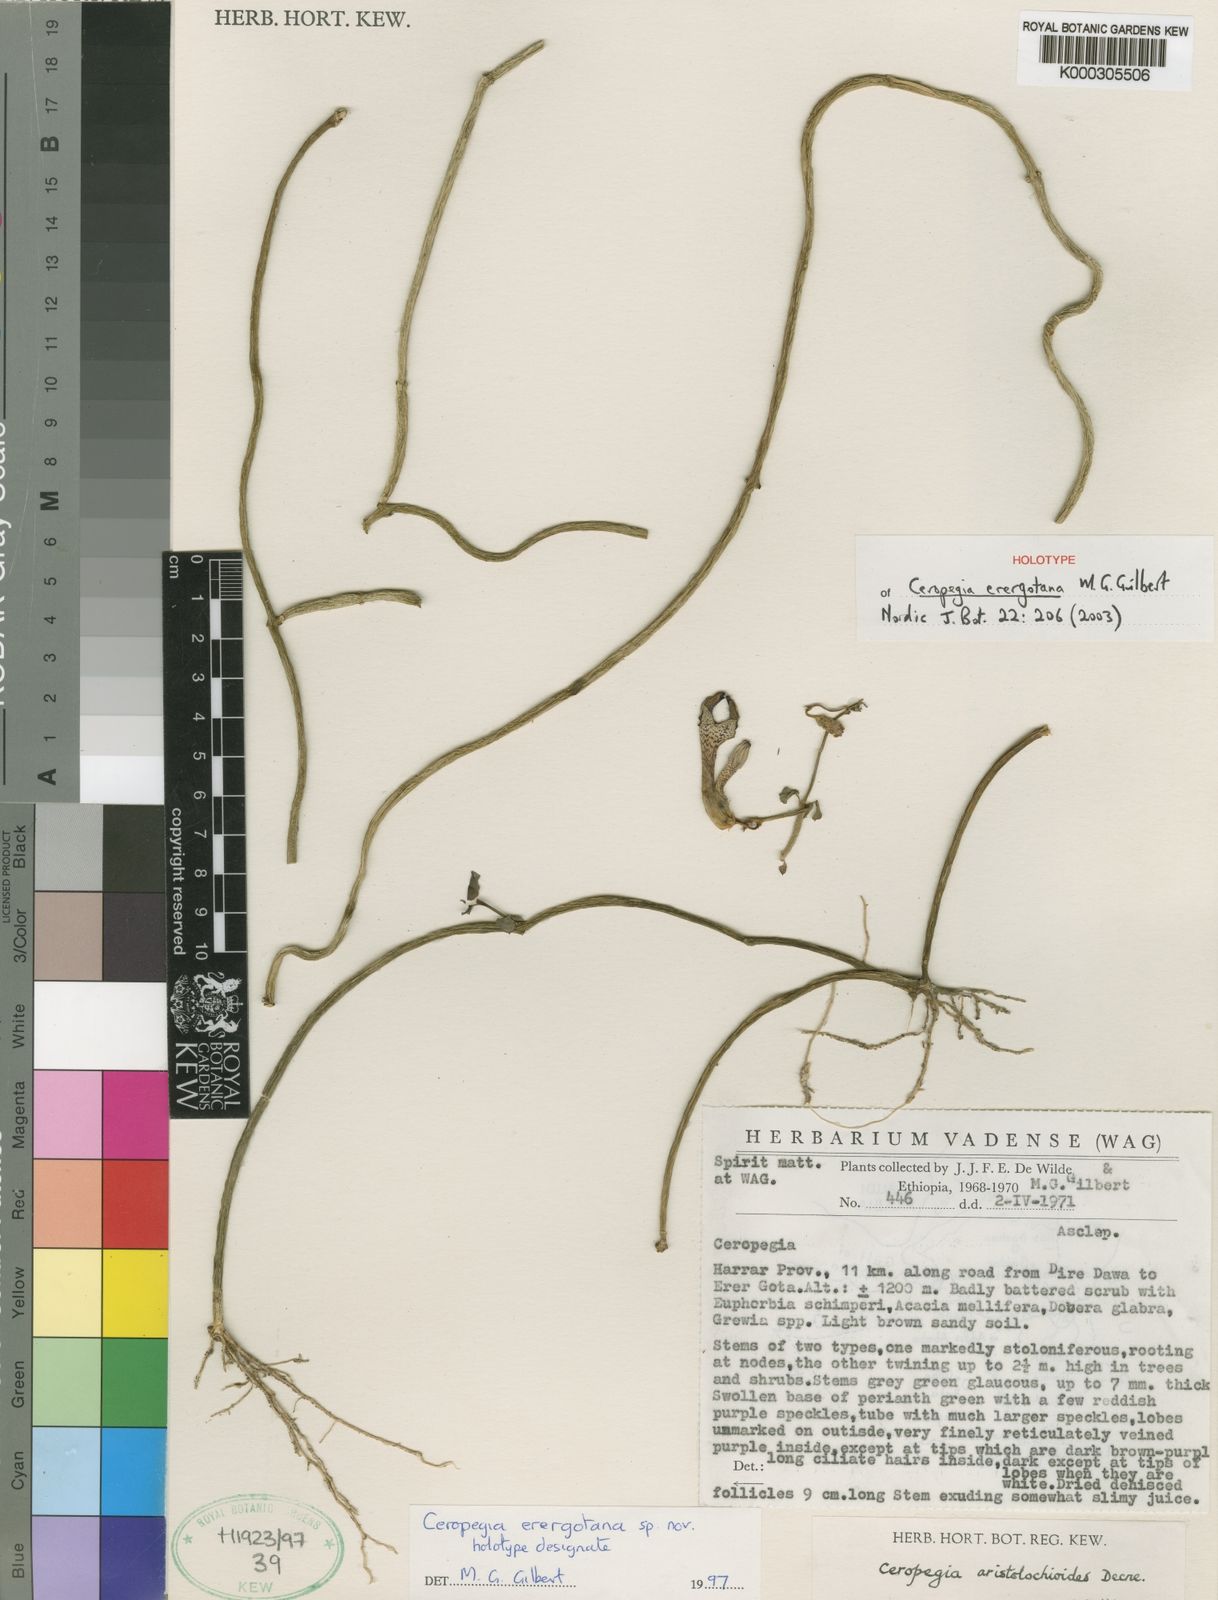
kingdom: Plantae
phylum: Tracheophyta
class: Magnoliopsida
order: Gentianales
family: Apocynaceae
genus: Ceropegia
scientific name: Ceropegia seticorona
